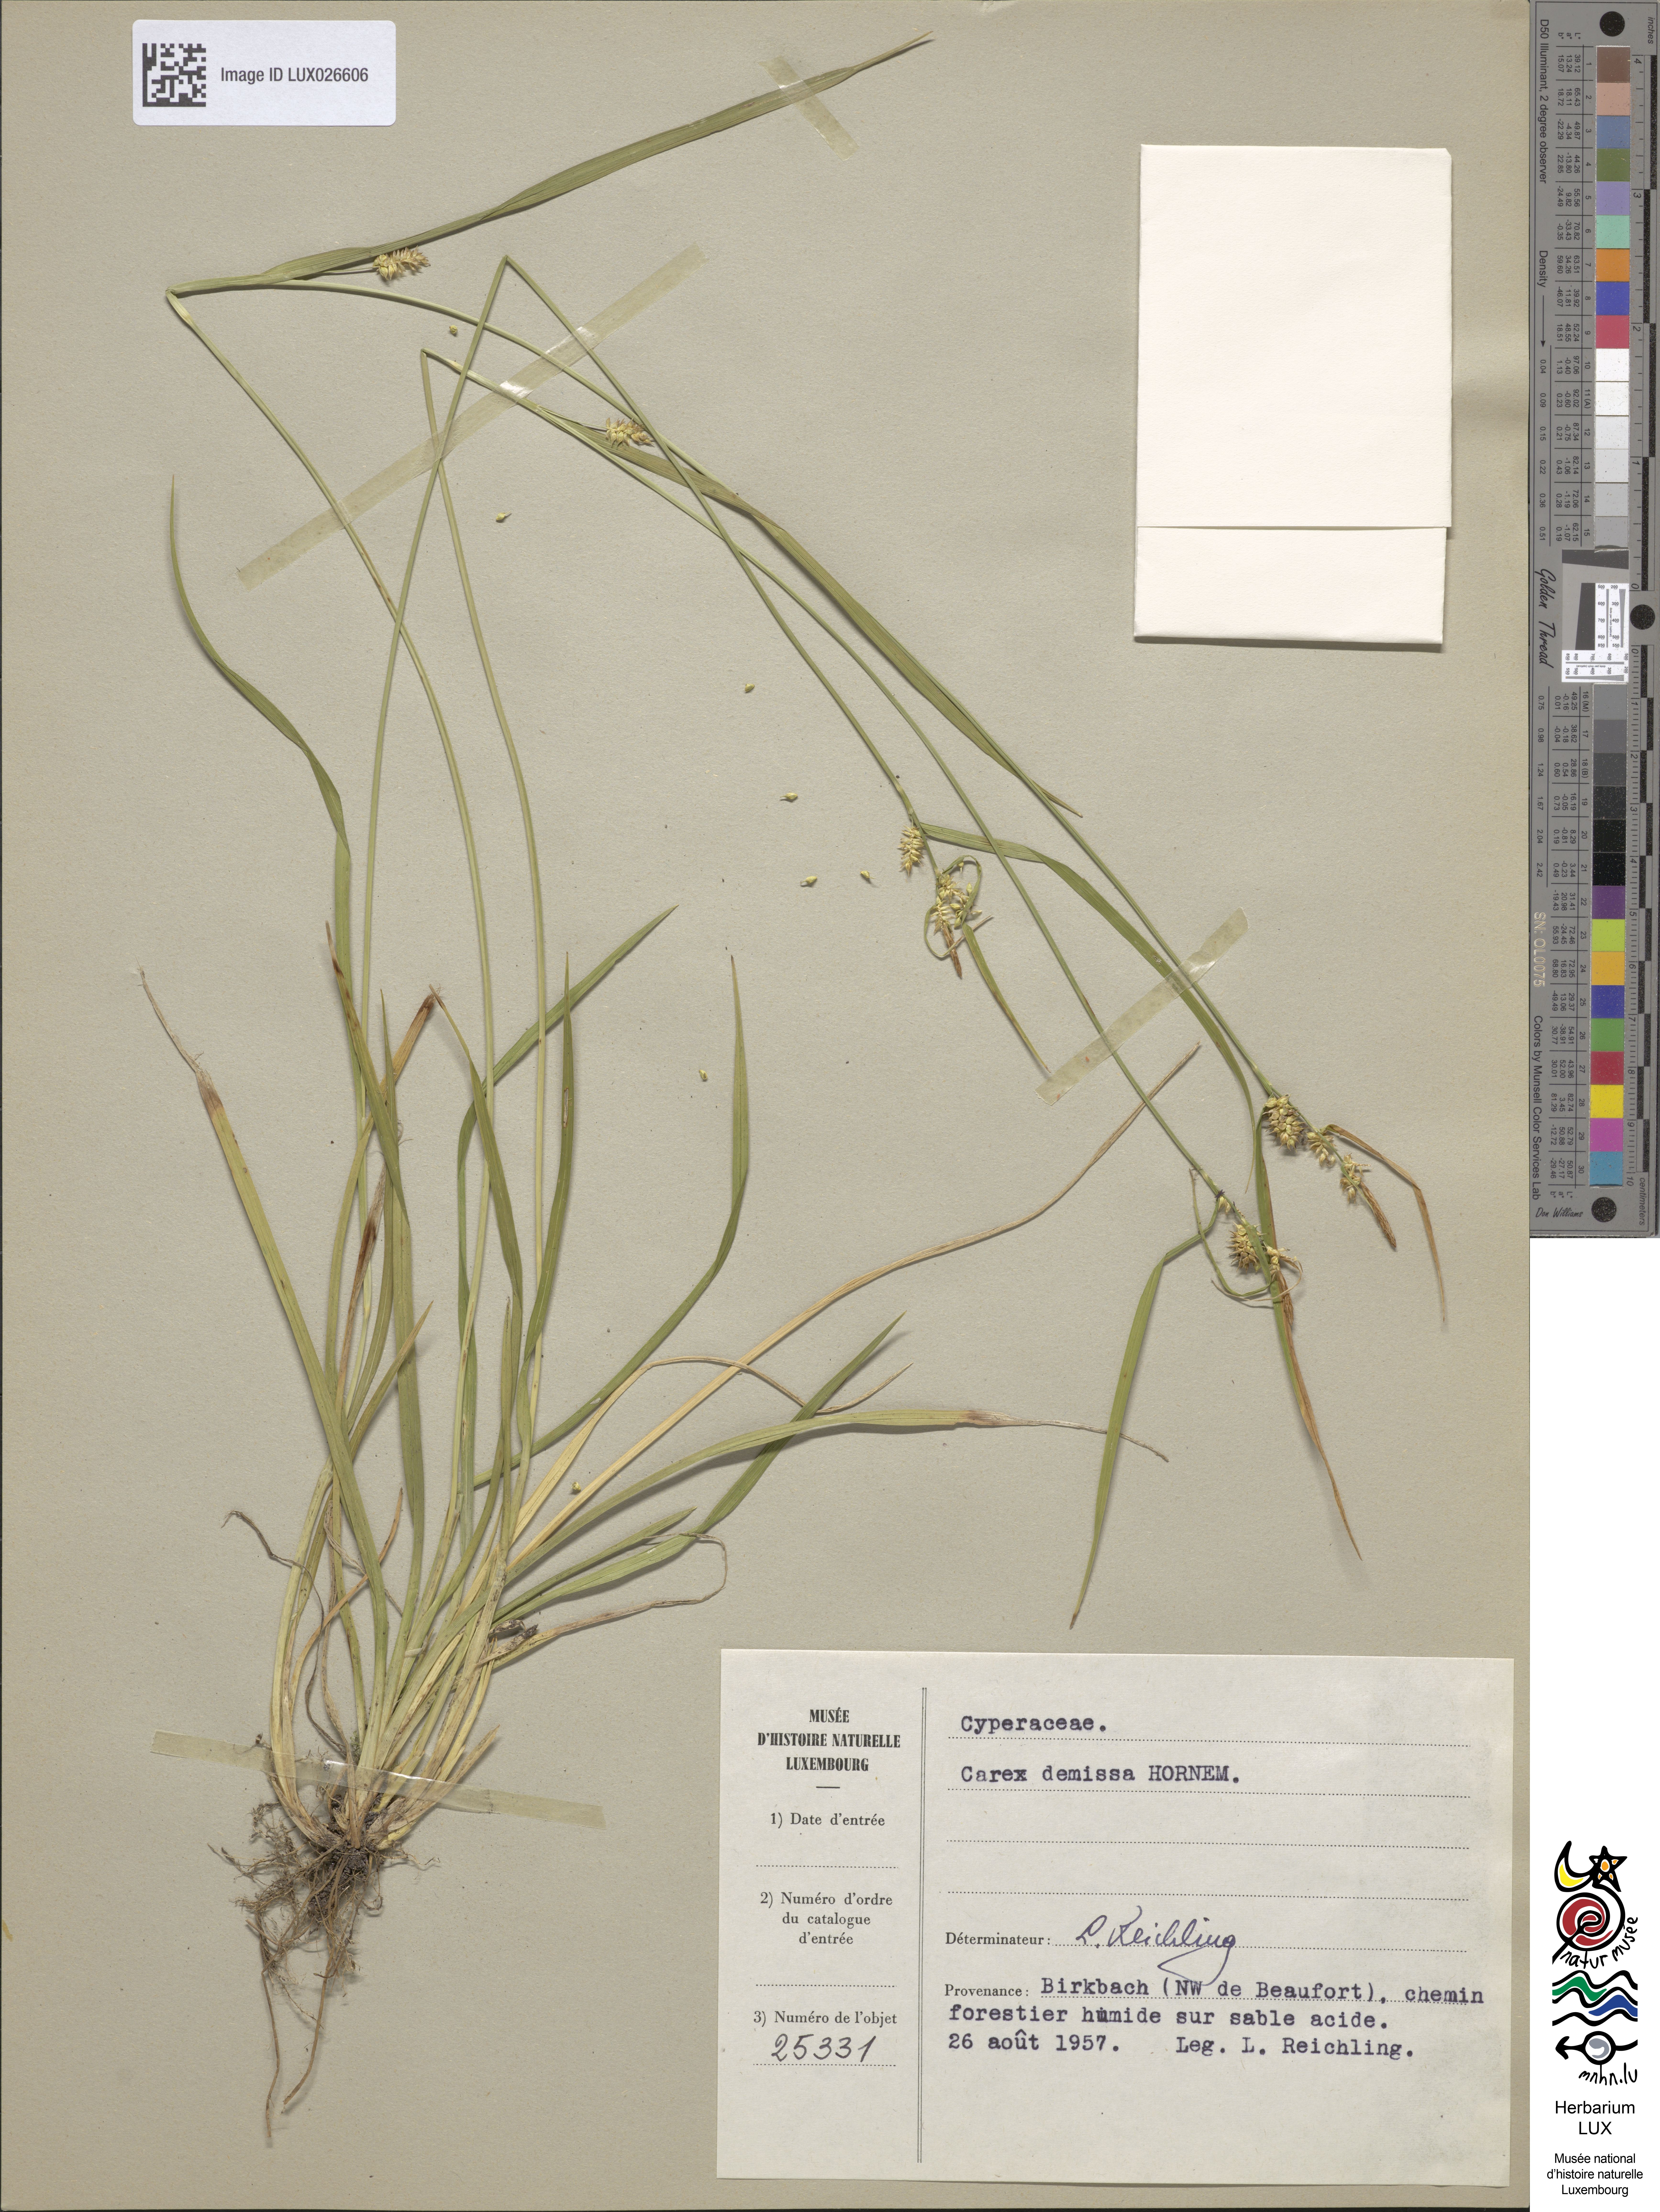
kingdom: Plantae
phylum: Tracheophyta
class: Liliopsida
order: Poales
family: Cyperaceae
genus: Carex
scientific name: Carex flava
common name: Large yellow-sedge
